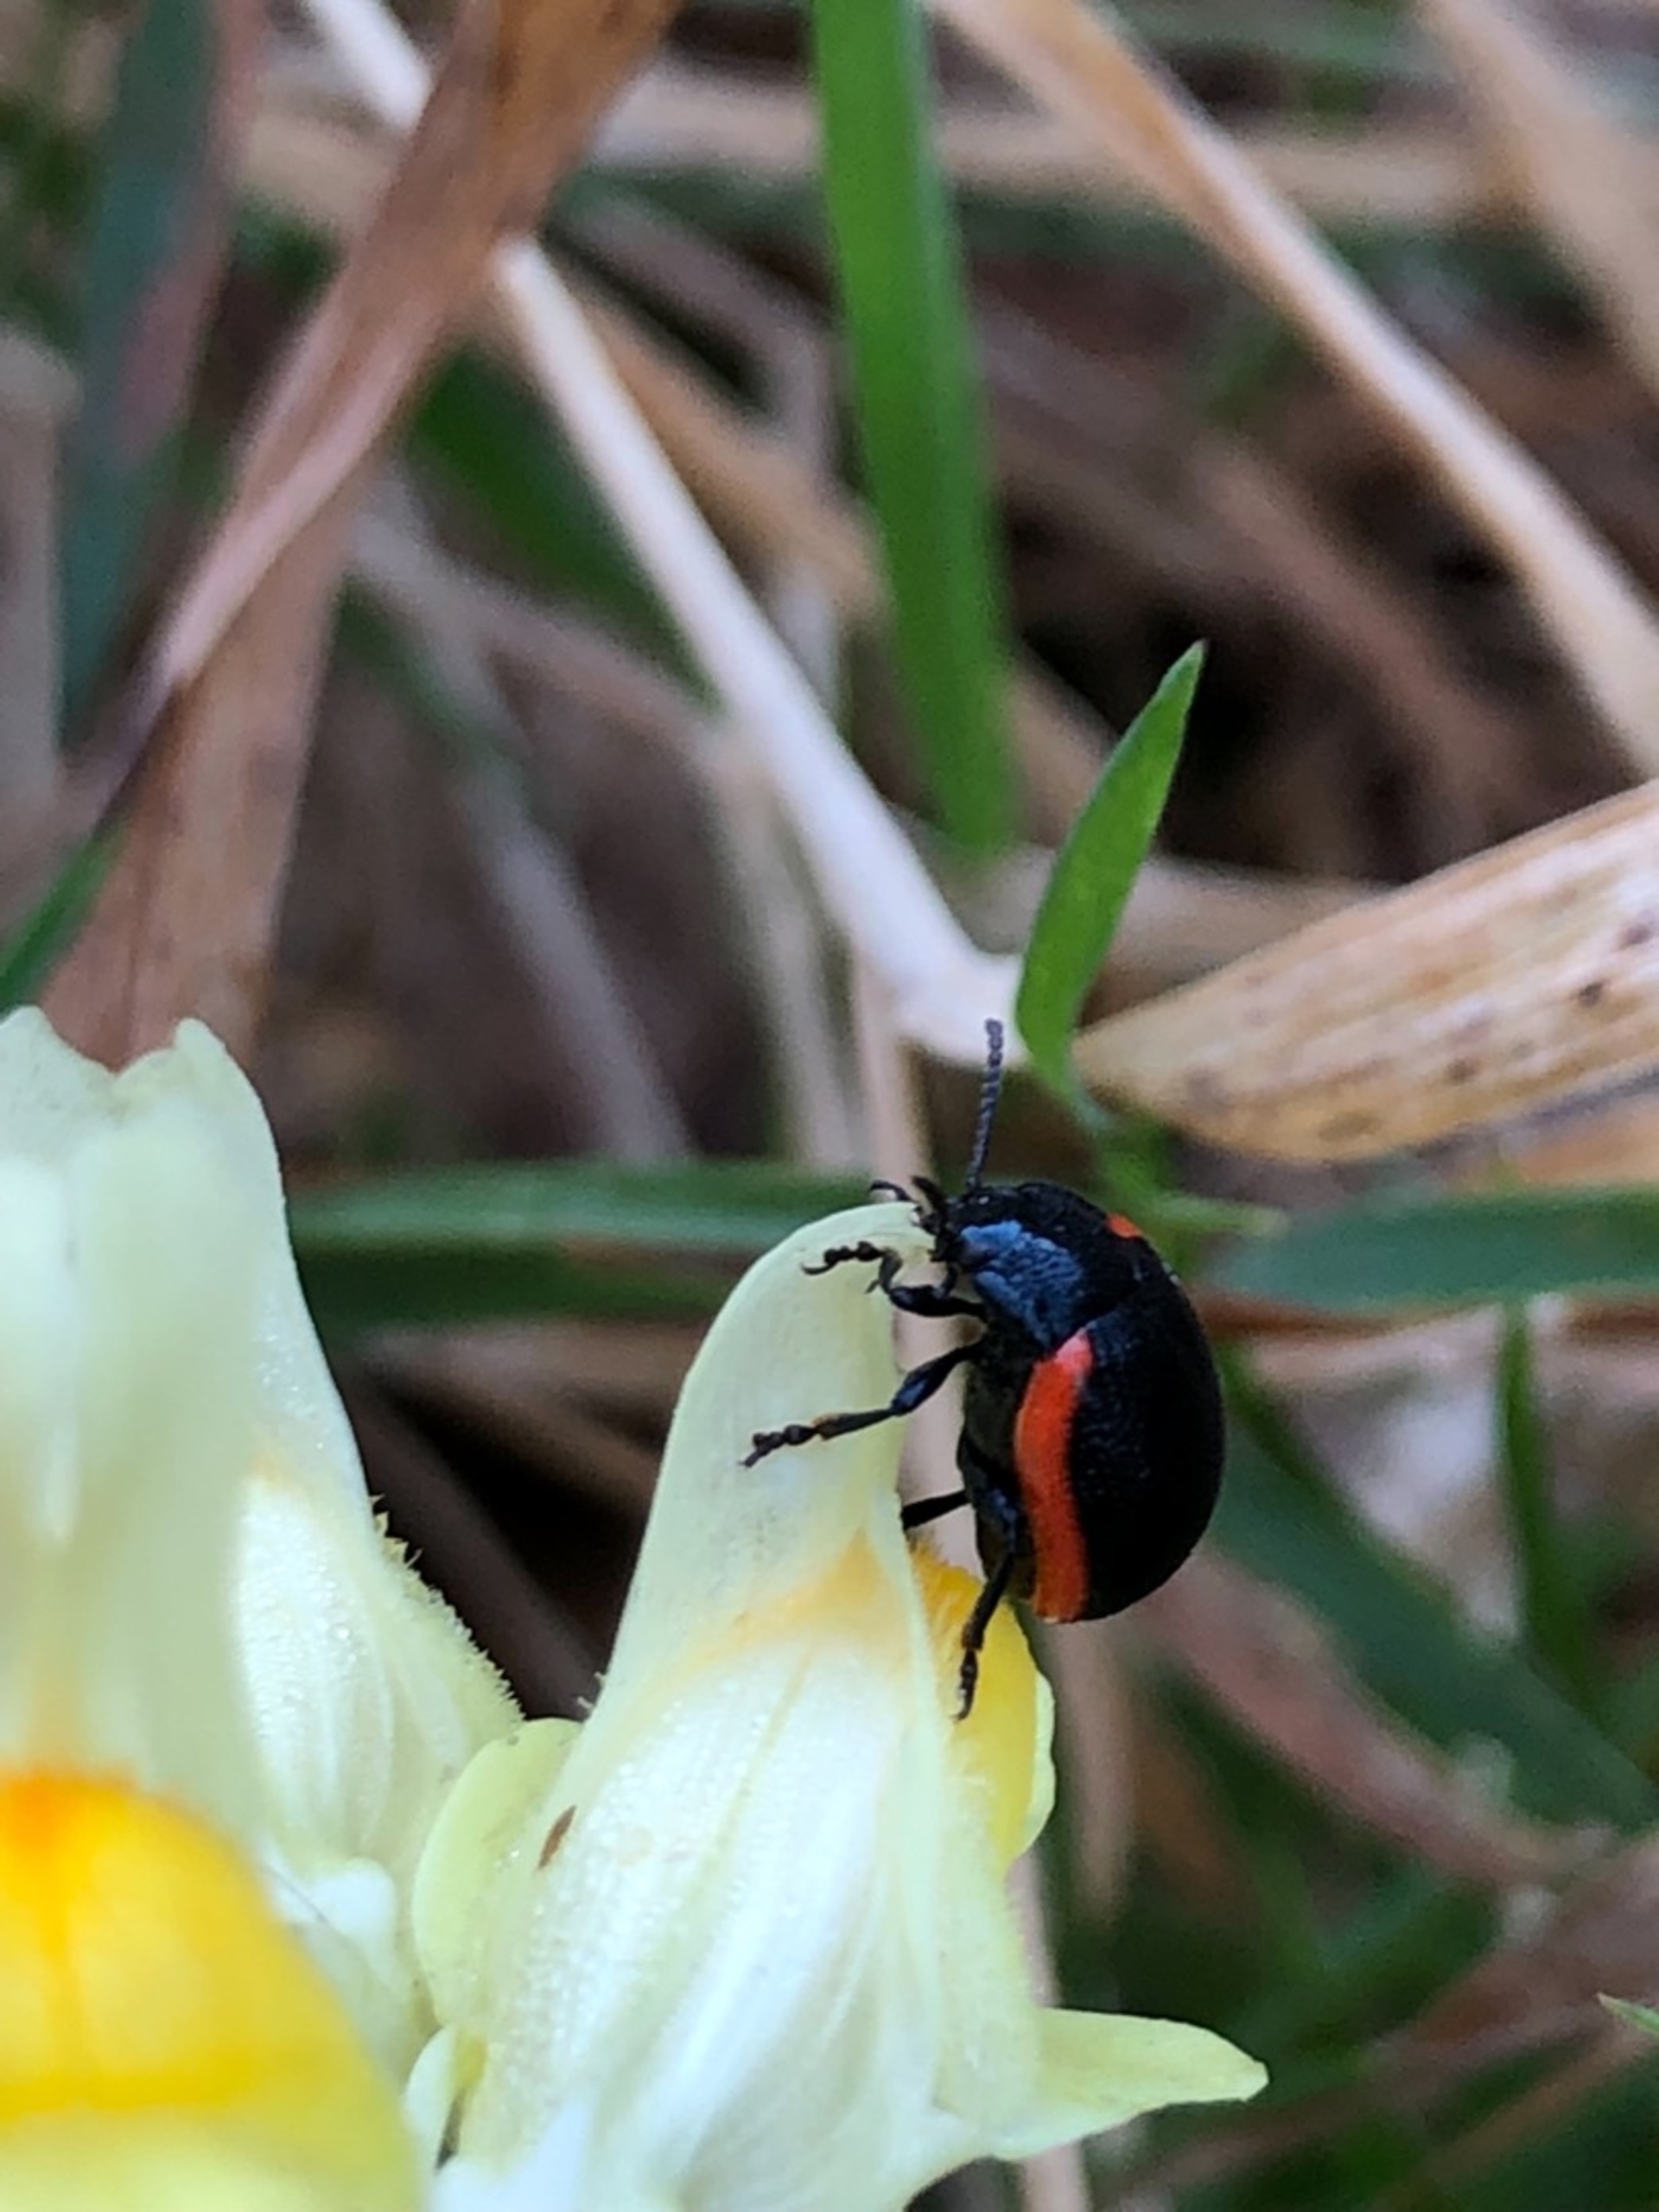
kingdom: Animalia
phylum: Arthropoda
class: Insecta
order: Coleoptera
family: Chrysomelidae
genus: Chrysolina
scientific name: Chrysolina sanguinolenta
